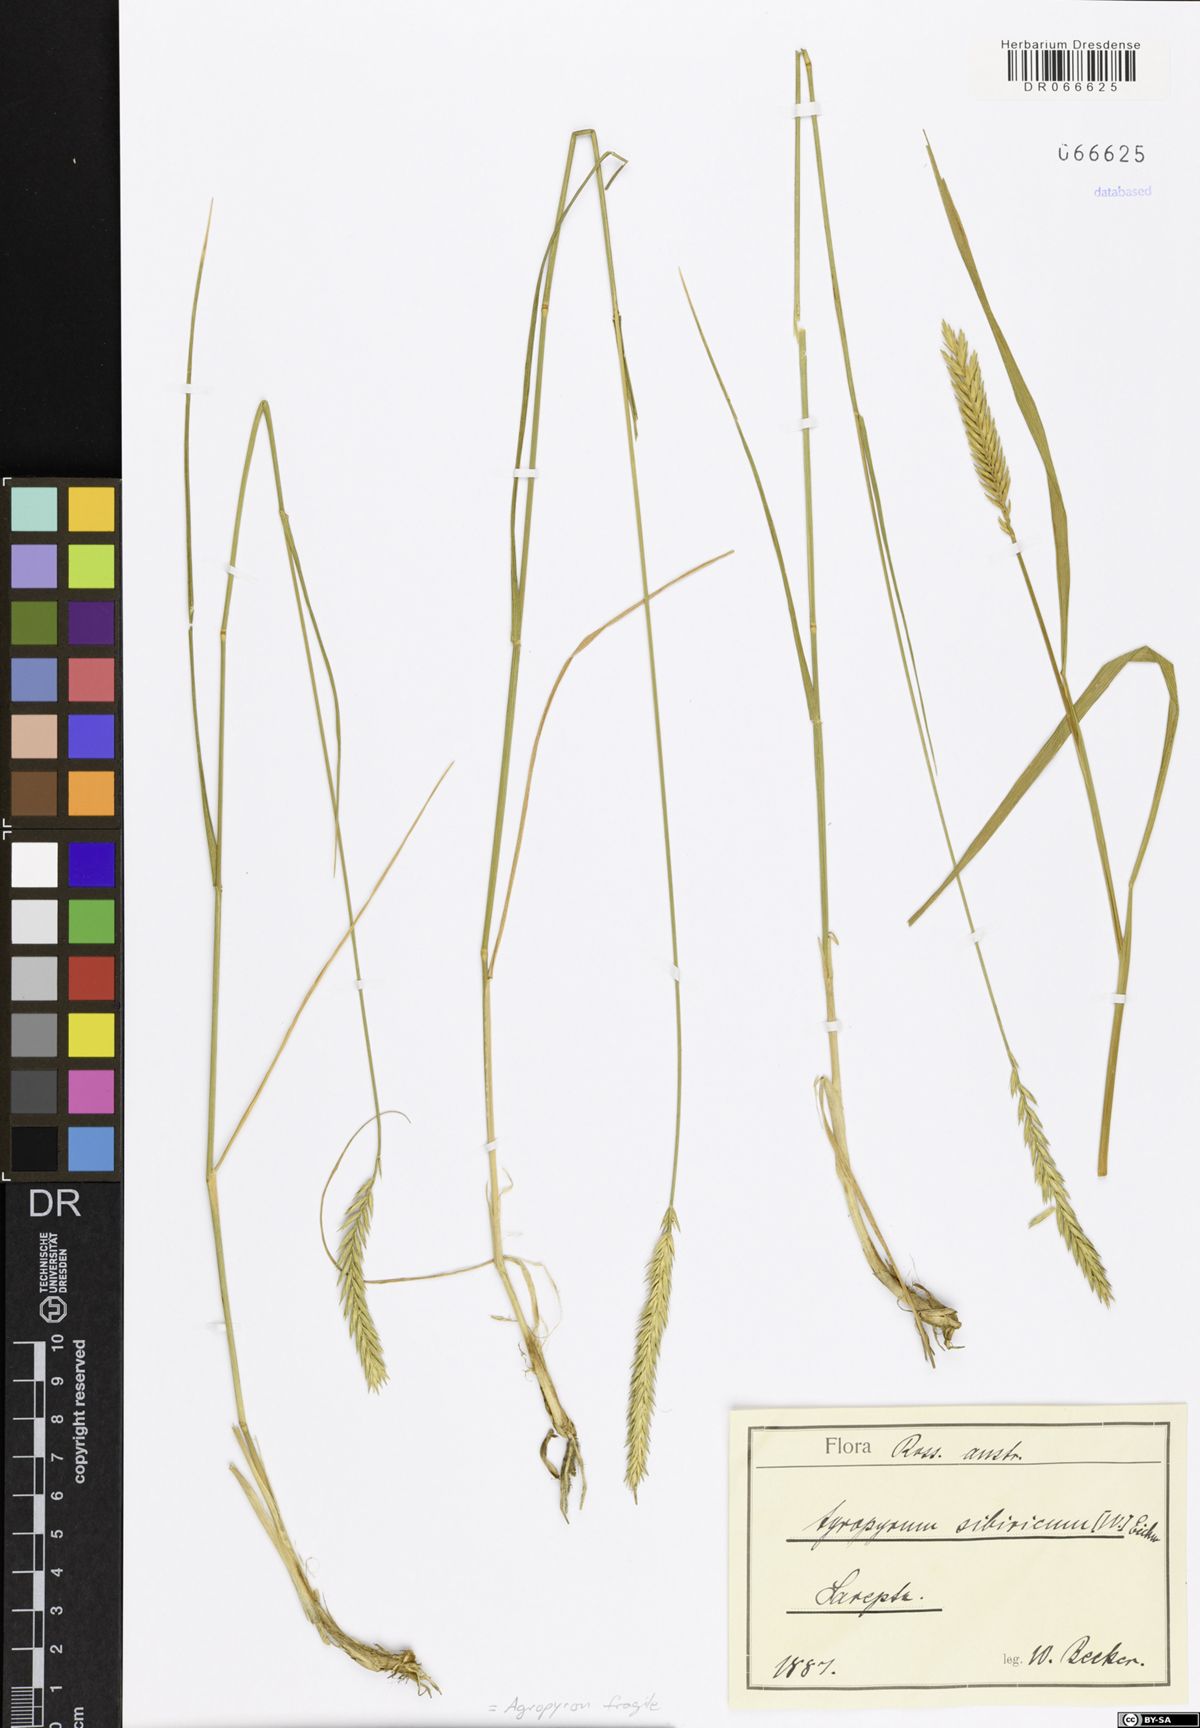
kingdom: Plantae
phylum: Tracheophyta
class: Liliopsida
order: Poales
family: Poaceae
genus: Agropyron
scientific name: Agropyron fragile
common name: Siberian wheatgrass
